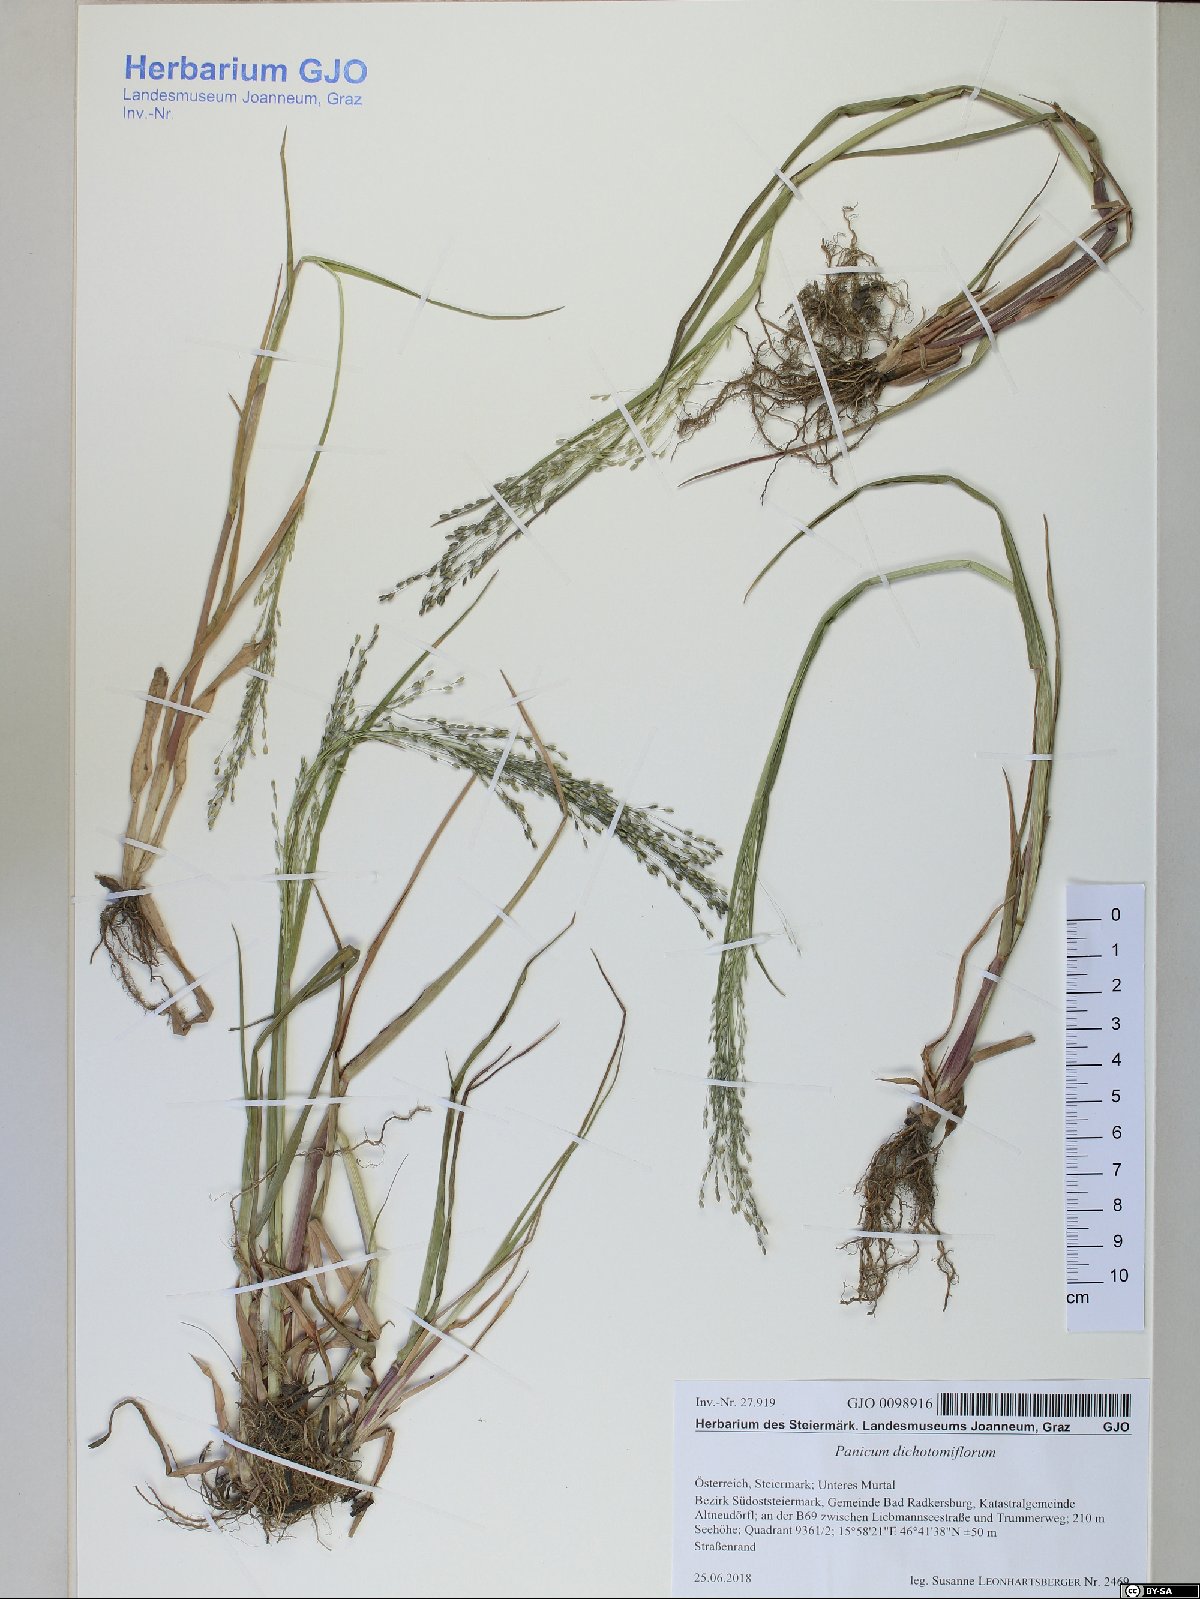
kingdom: Plantae
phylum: Tracheophyta
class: Liliopsida
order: Poales
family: Poaceae
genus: Panicum
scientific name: Panicum dichotomiflorum
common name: Autumn millet
